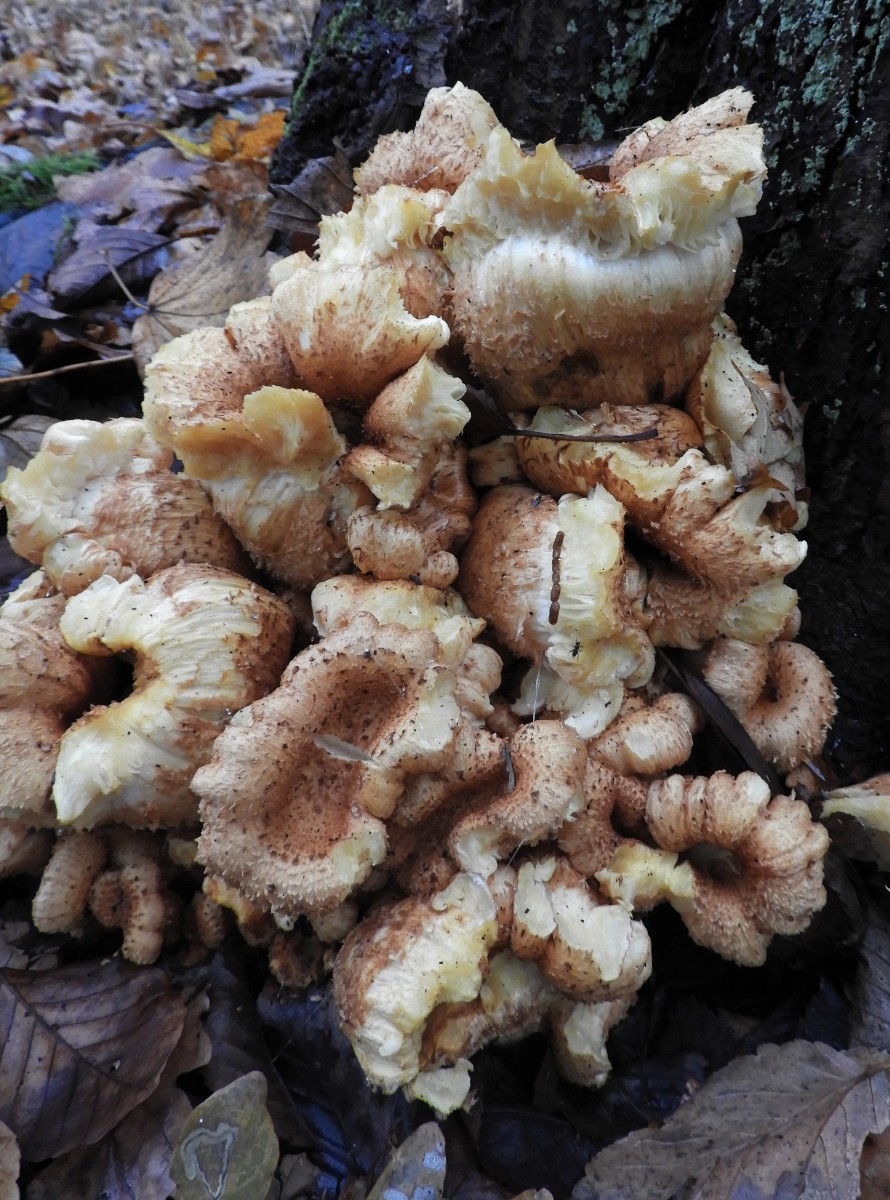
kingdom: Fungi
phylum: Basidiomycota
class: Agaricomycetes
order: Agaricales
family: Strophariaceae
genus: Pholiota
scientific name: Pholiota squarrosa
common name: krumskællet skælhat
